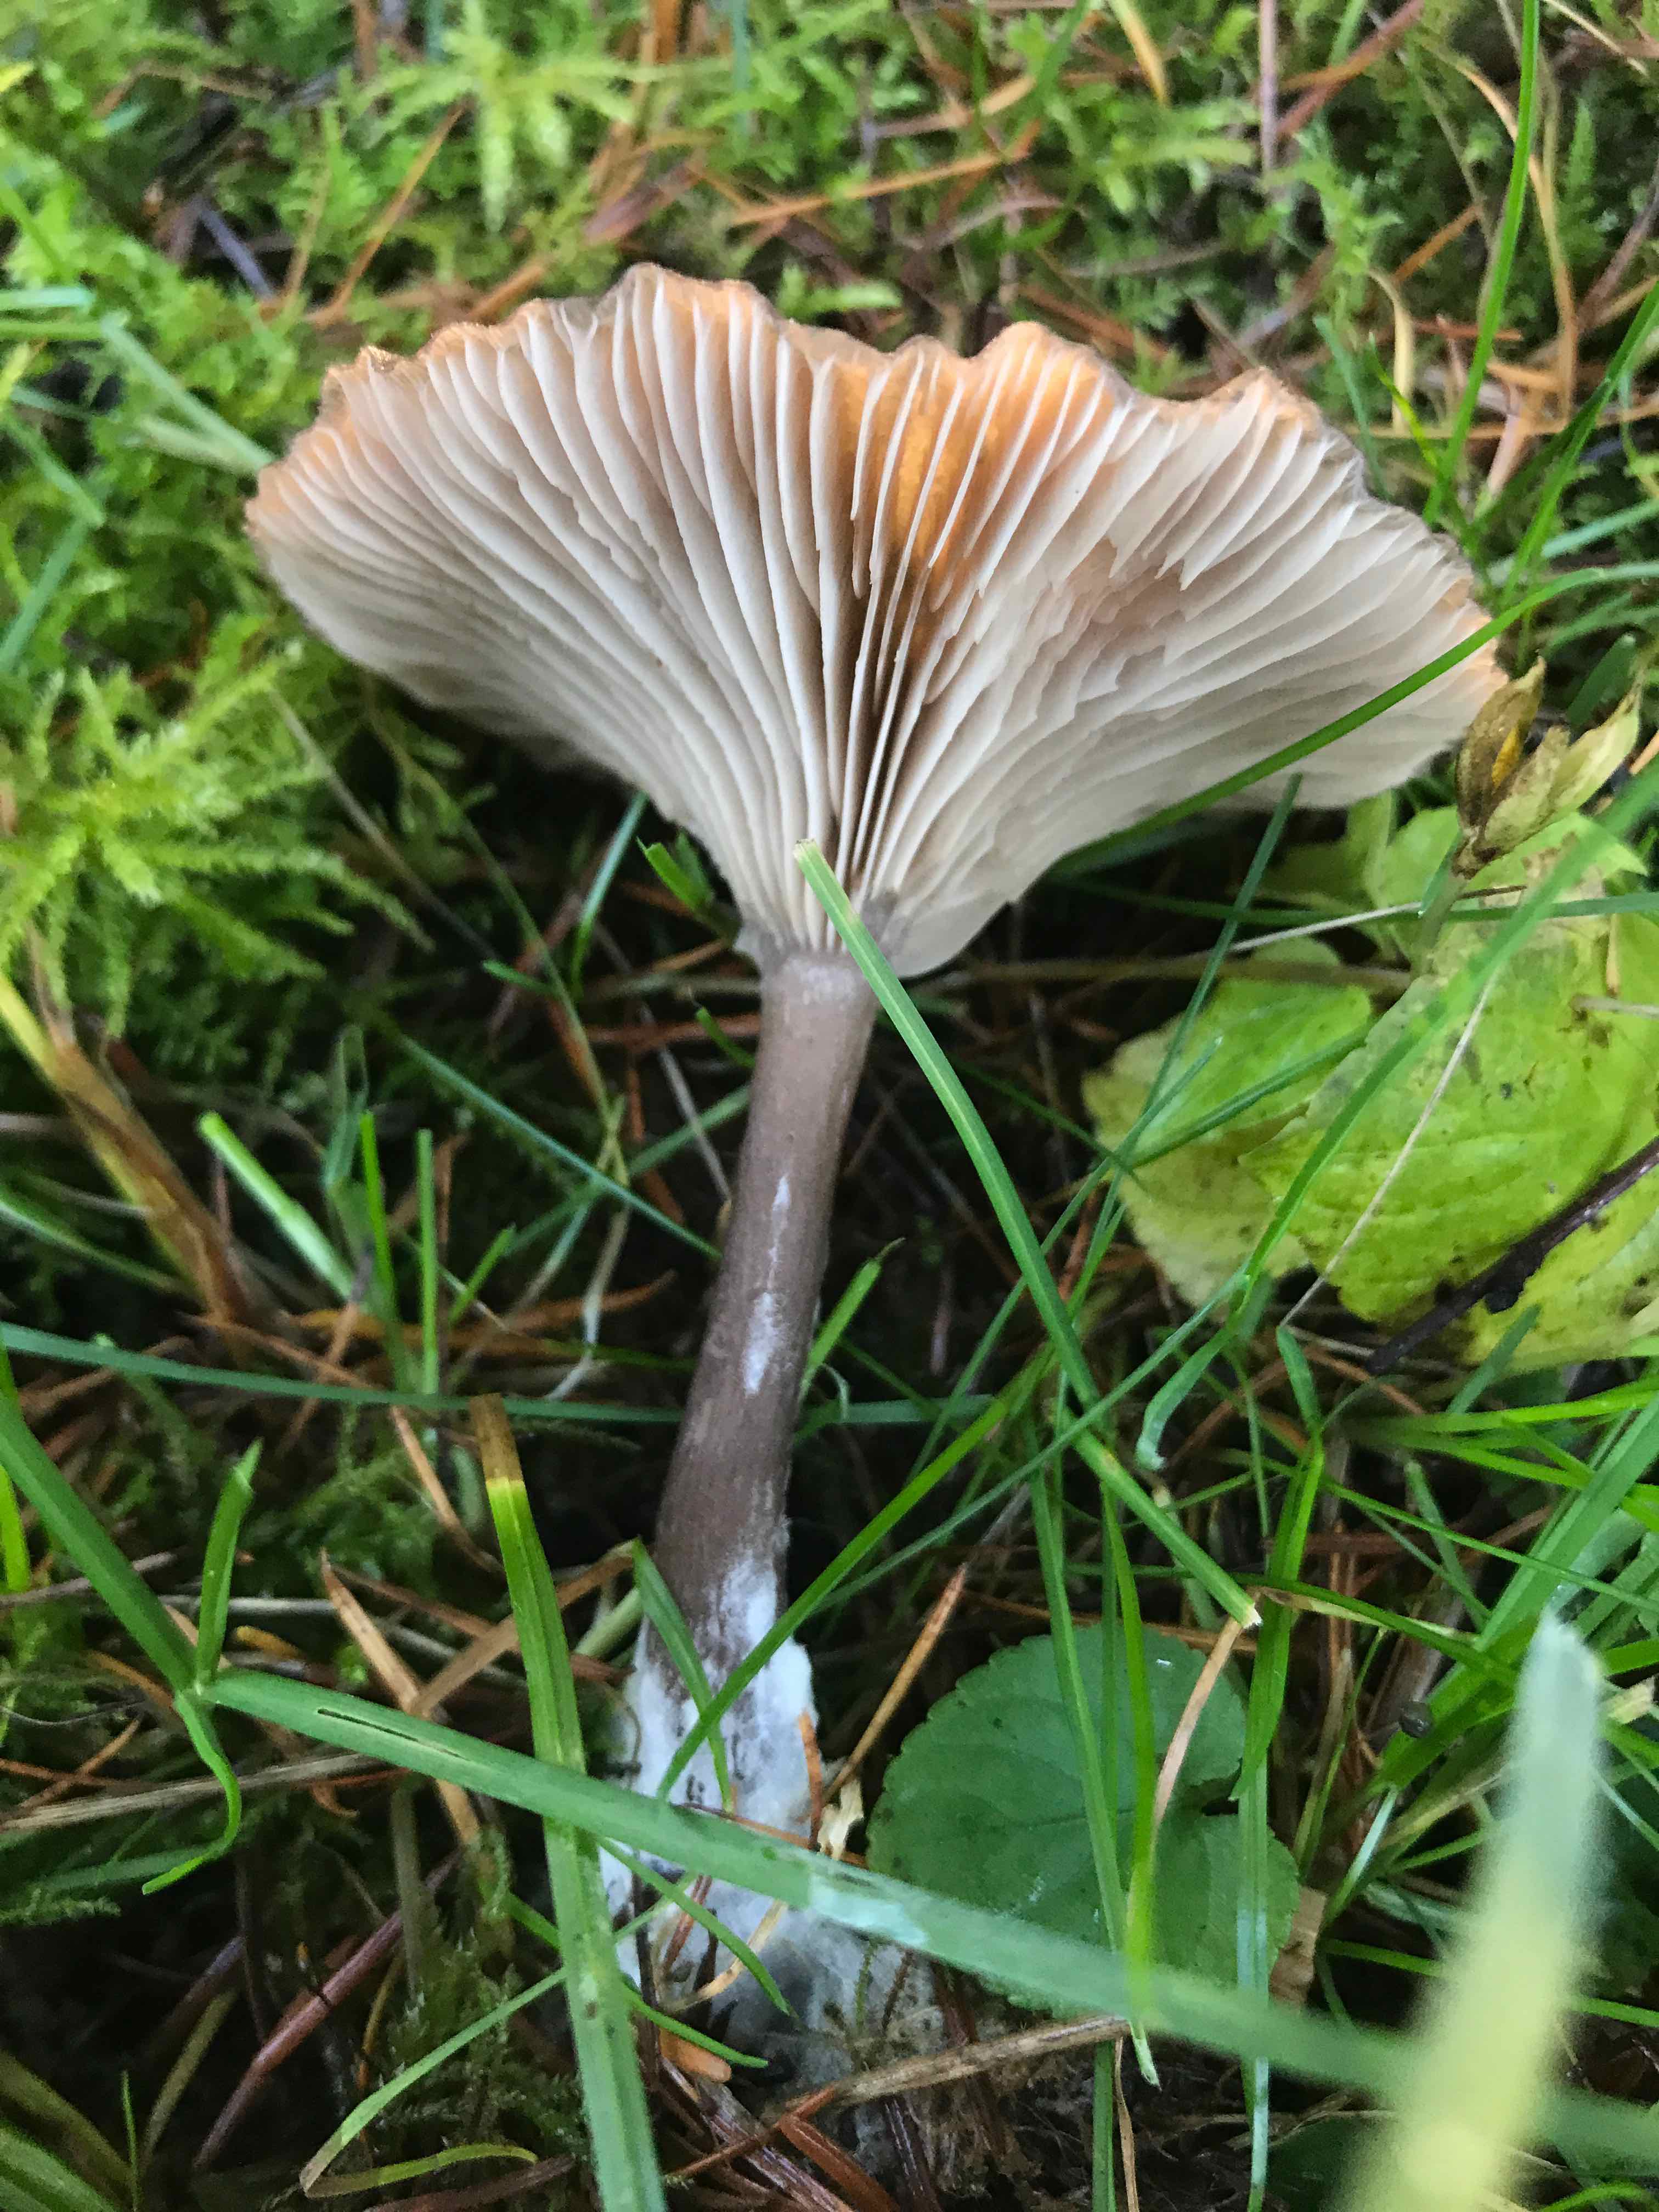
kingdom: Fungi
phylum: Basidiomycota
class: Agaricomycetes
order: Agaricales
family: Pseudoclitocybaceae
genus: Pseudoclitocybe
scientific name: Pseudoclitocybe cyathiformis
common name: almindelig bægertragthat
